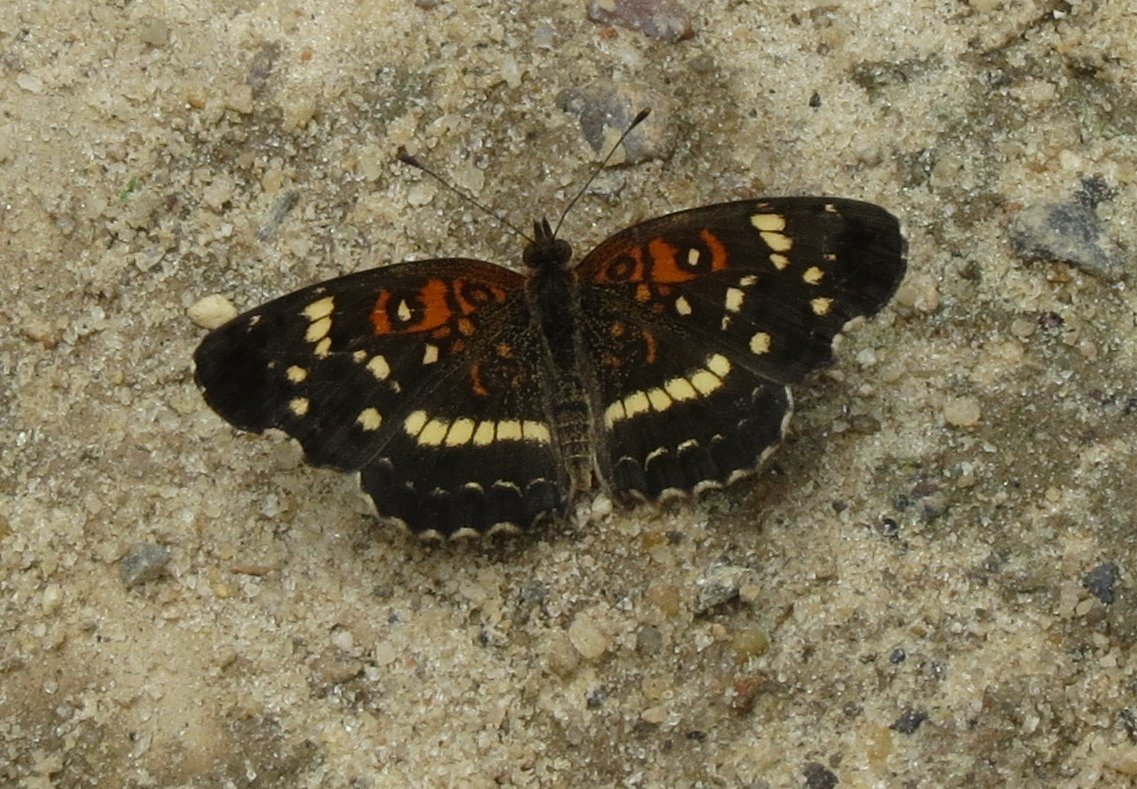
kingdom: Animalia
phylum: Arthropoda
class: Insecta
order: Lepidoptera
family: Nymphalidae
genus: Anthanassa
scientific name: Anthanassa texana
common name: Texan Crescent
